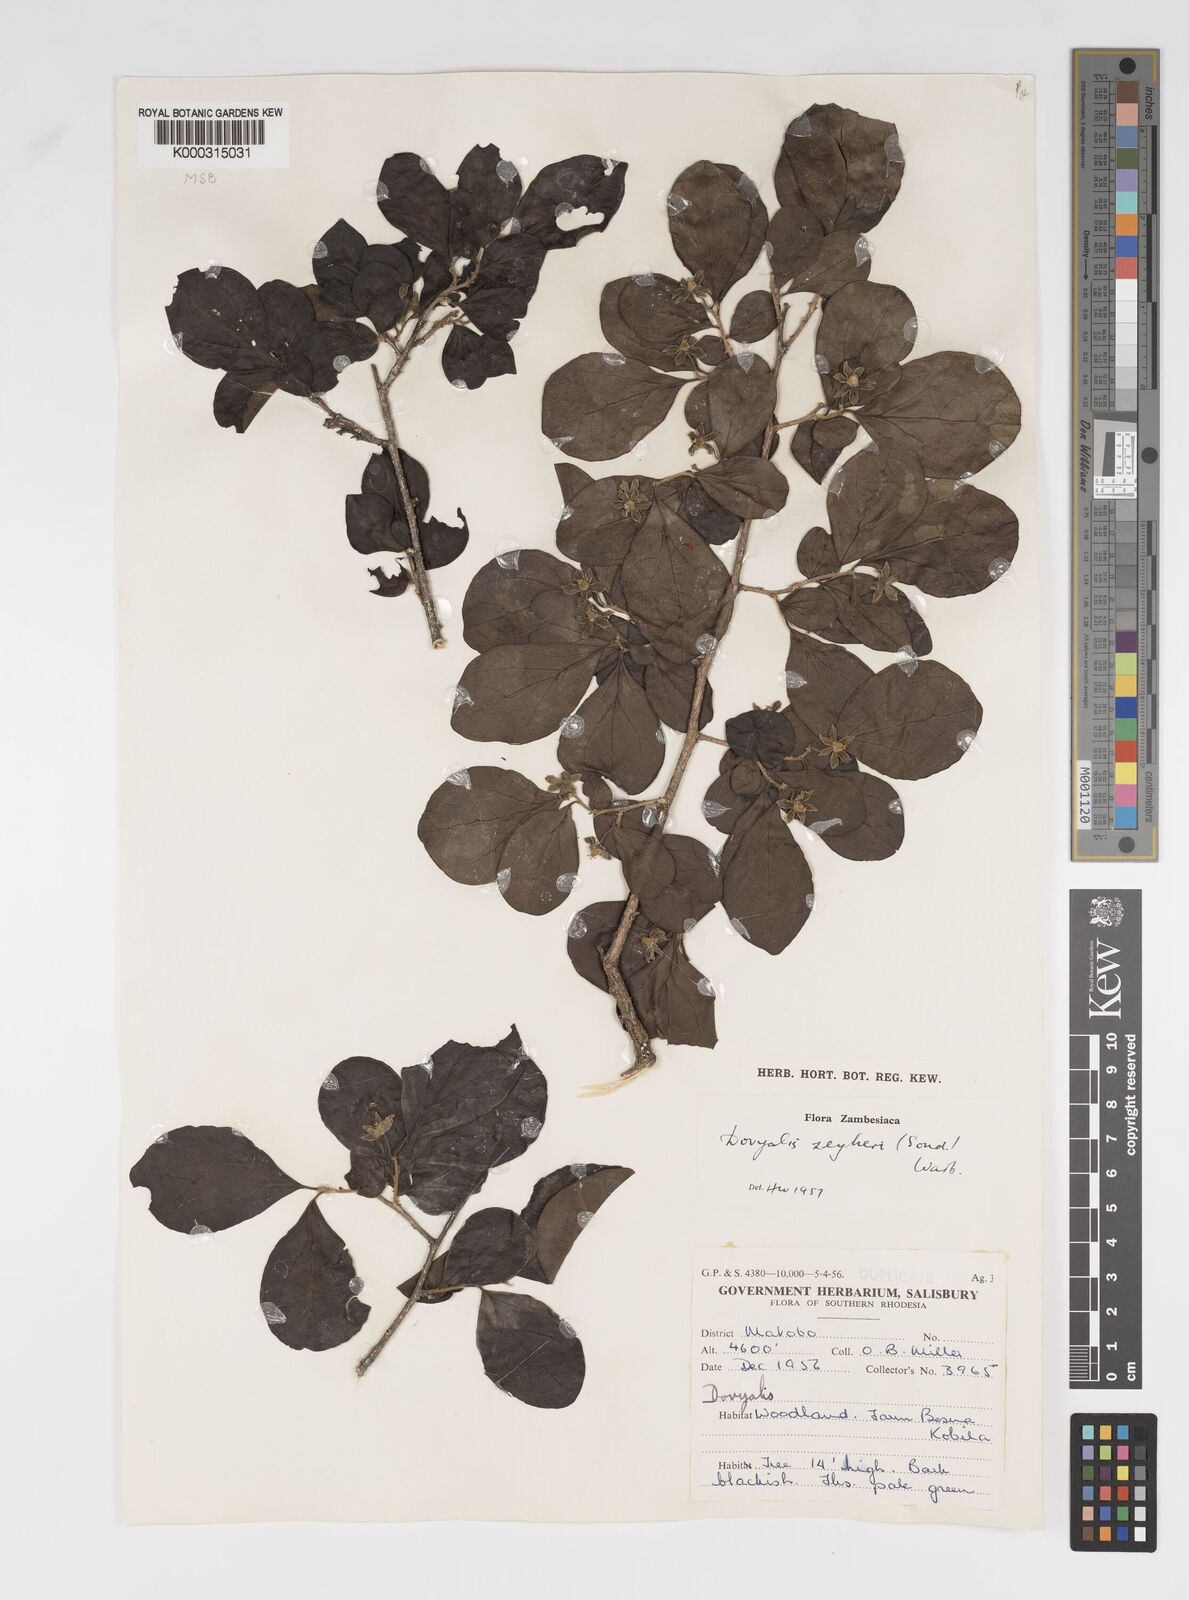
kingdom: Plantae
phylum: Tracheophyta
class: Magnoliopsida
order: Malpighiales
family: Salicaceae
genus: Dovyalis
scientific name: Dovyalis zeyheri
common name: Apricot sourberry
